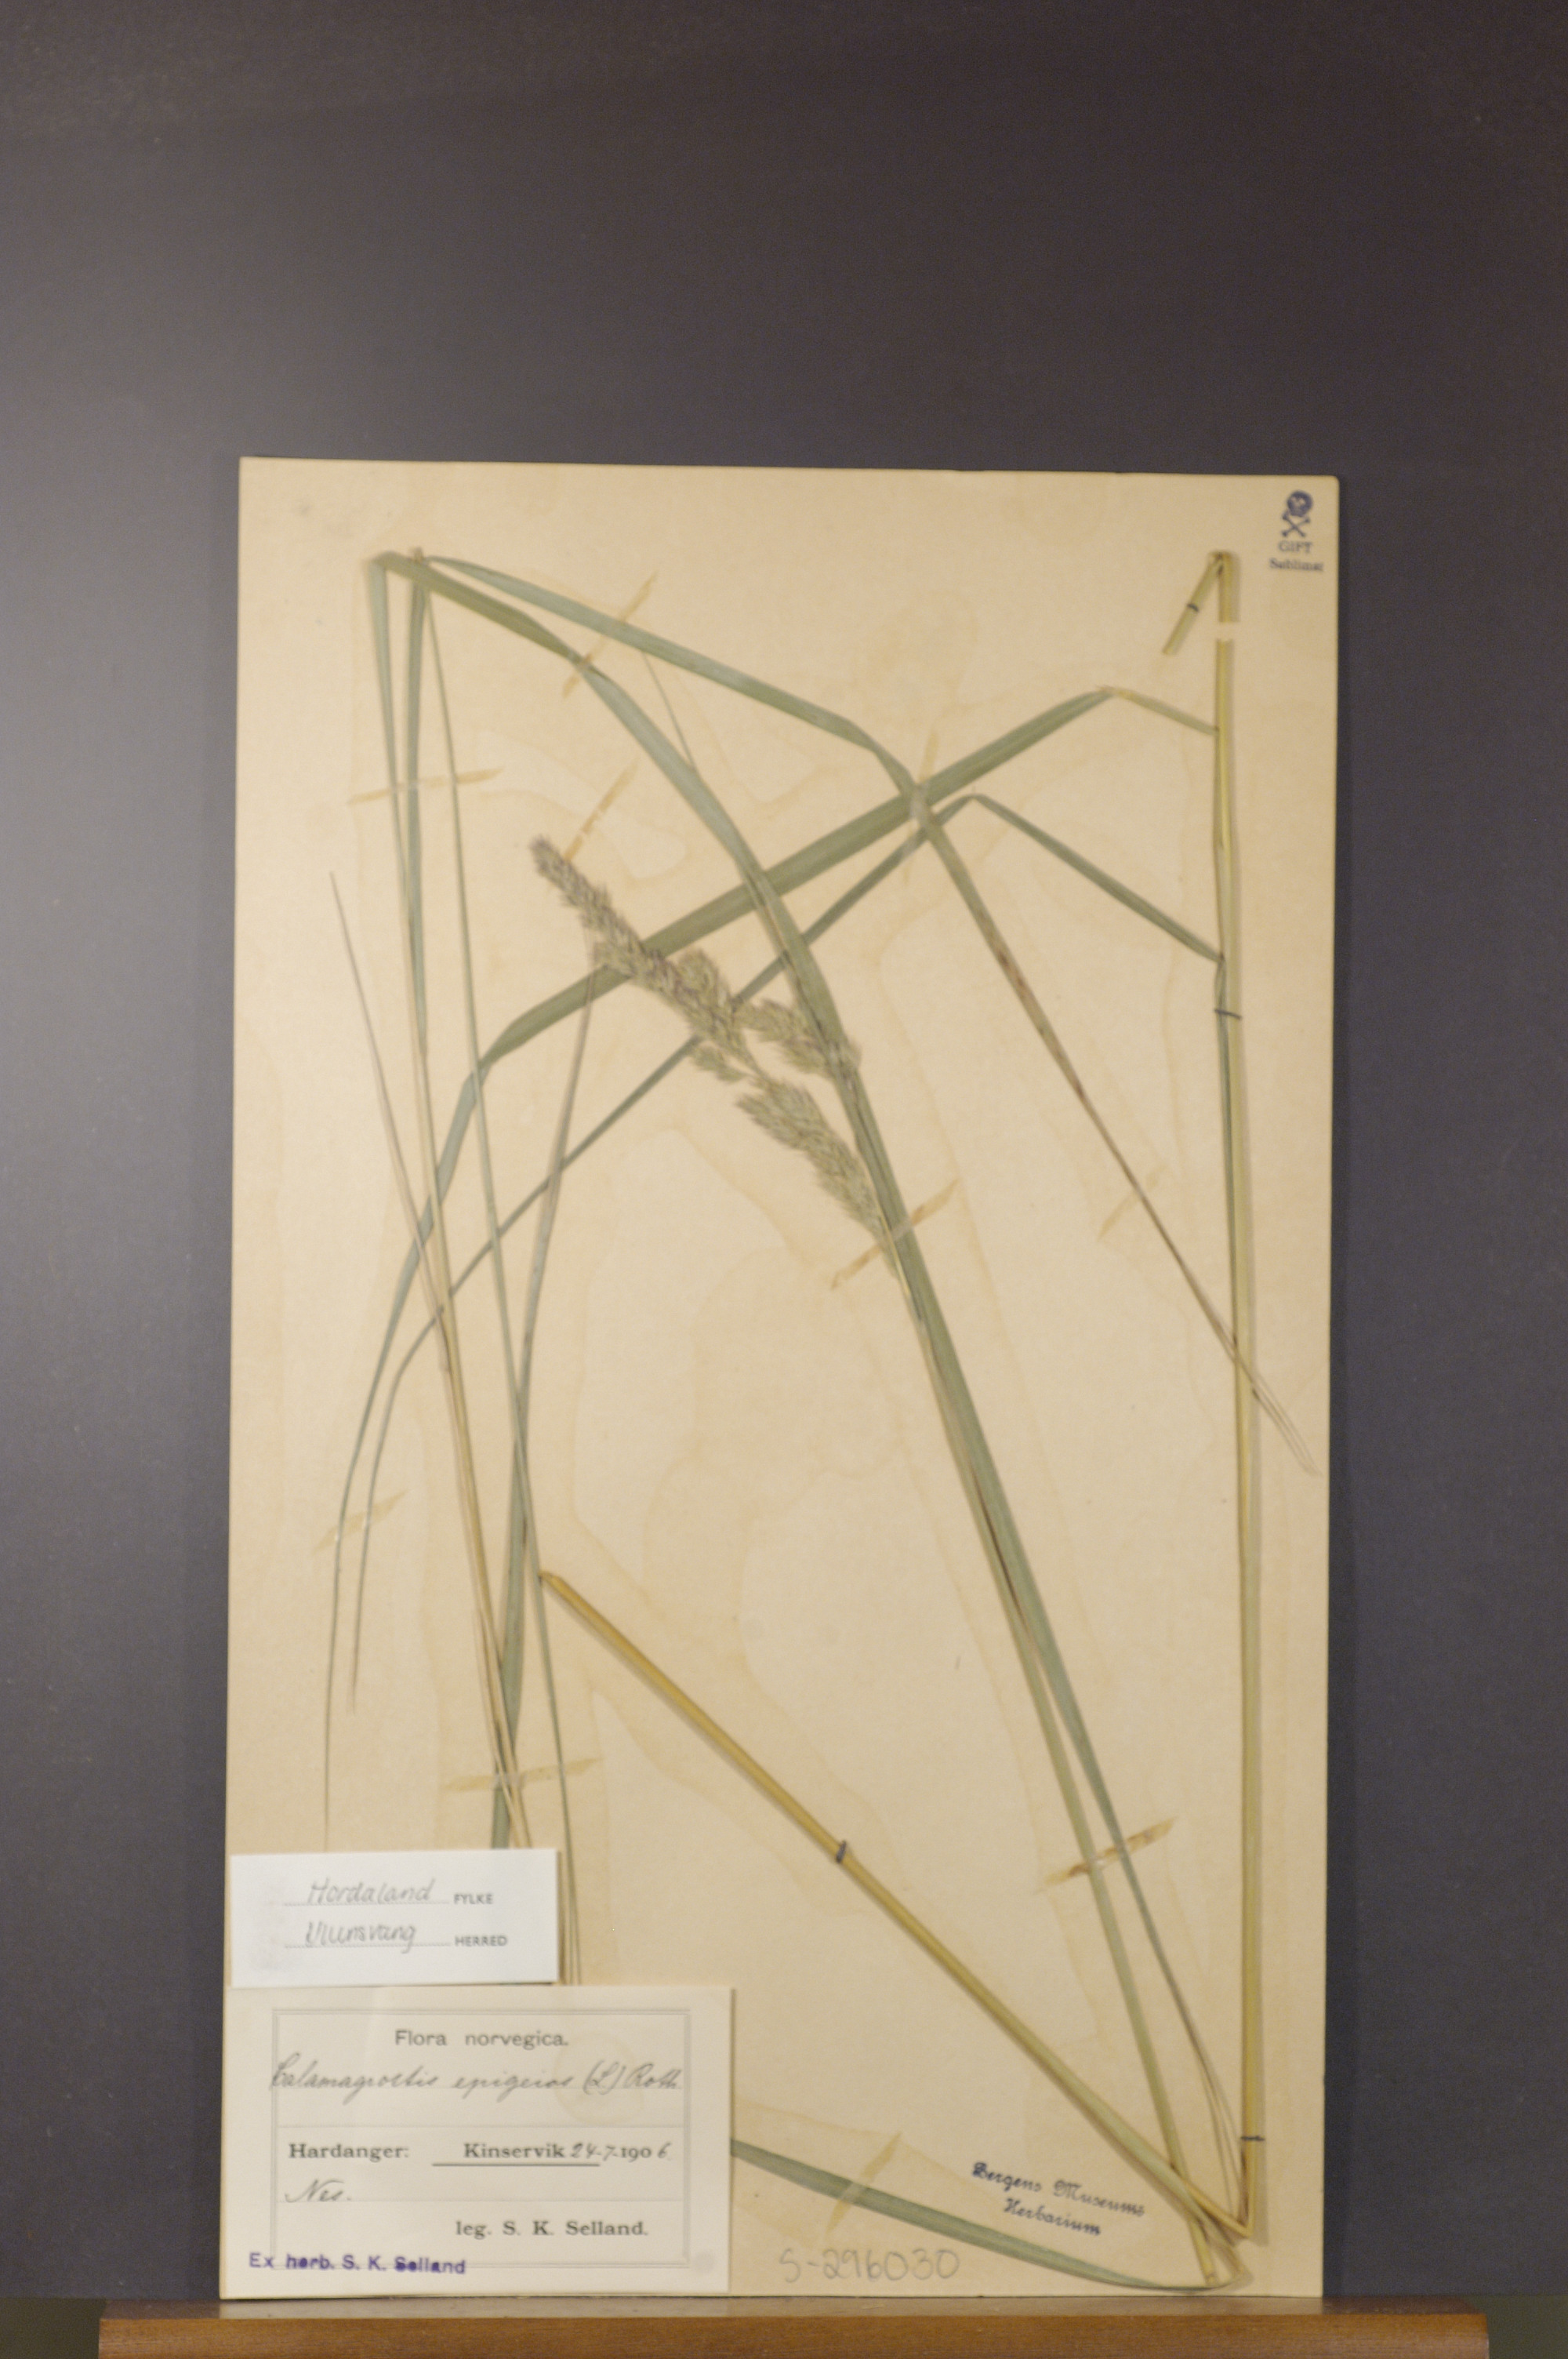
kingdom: Plantae
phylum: Tracheophyta
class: Liliopsida
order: Poales
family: Poaceae
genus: Calamagrostis
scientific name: Calamagrostis epigejos
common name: Wood small-reed
